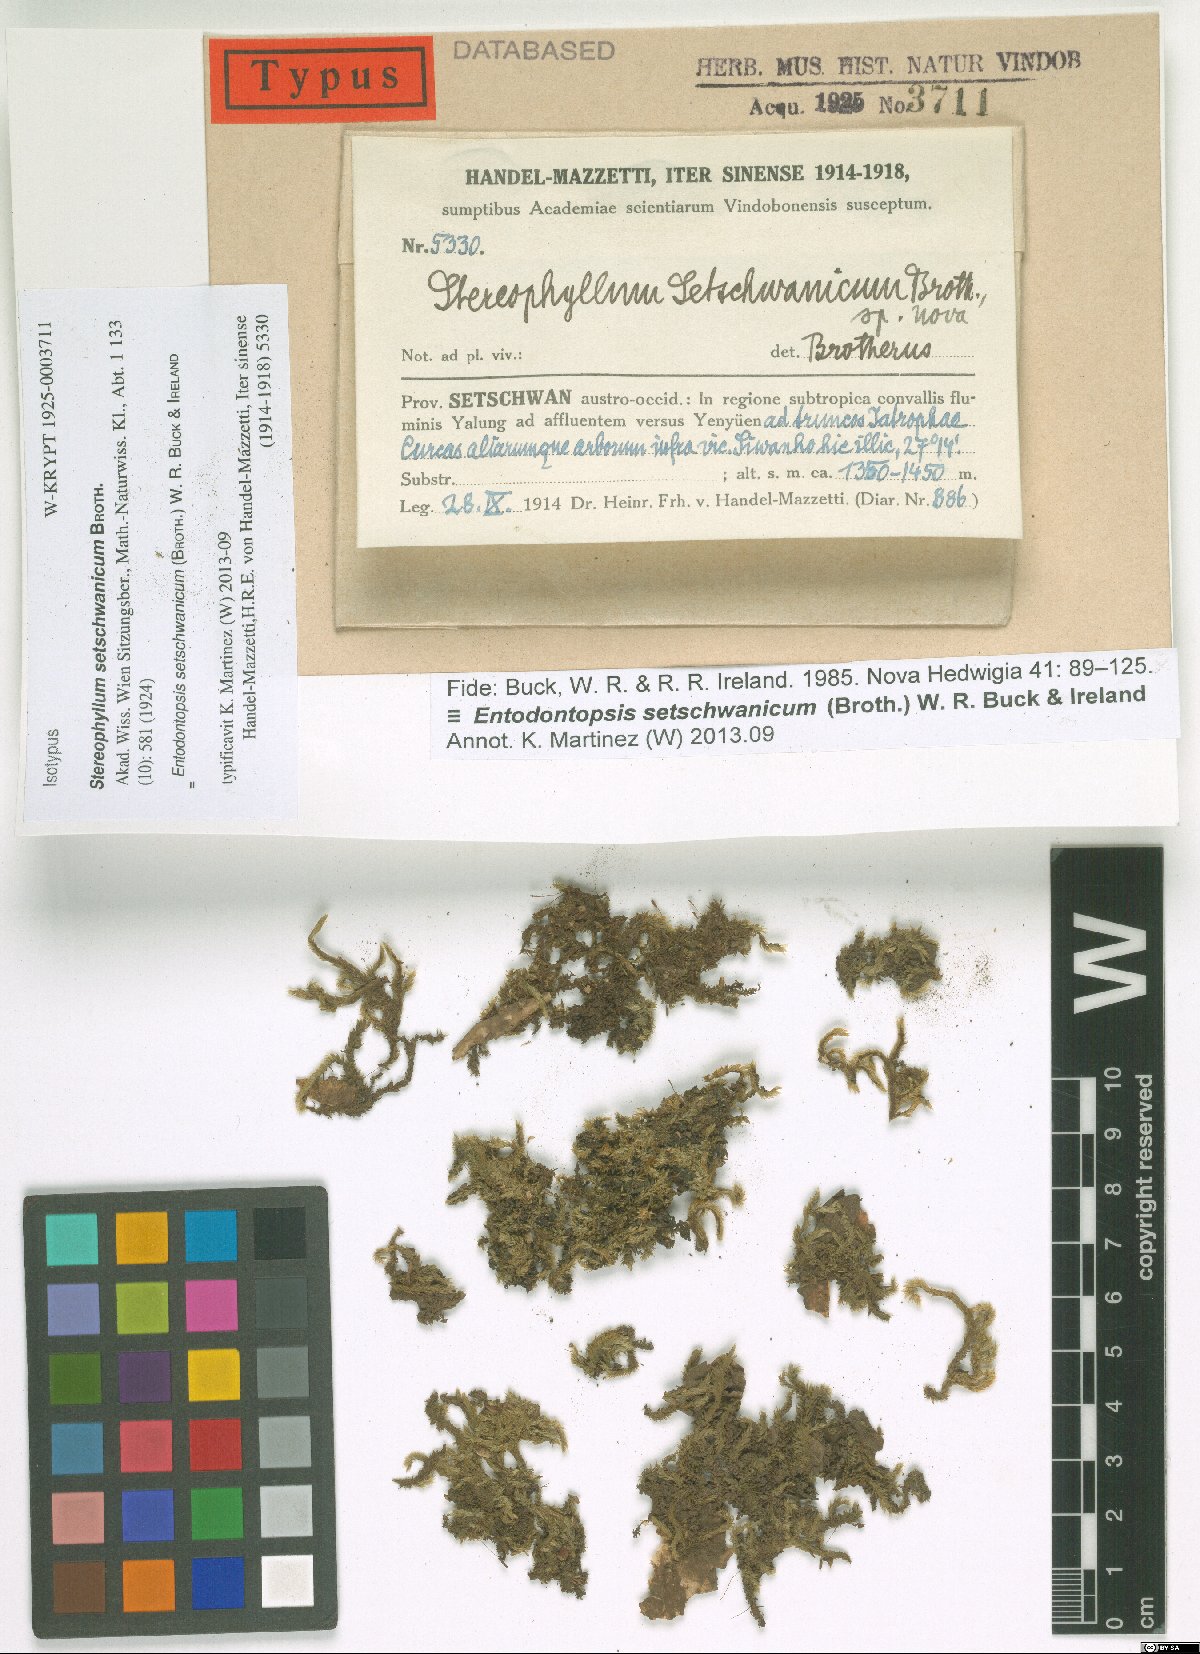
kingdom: Plantae
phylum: Bryophyta
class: Bryopsida
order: Hypnales
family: Stereophyllaceae
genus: Entodontopsis
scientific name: Entodontopsis setschwanica
